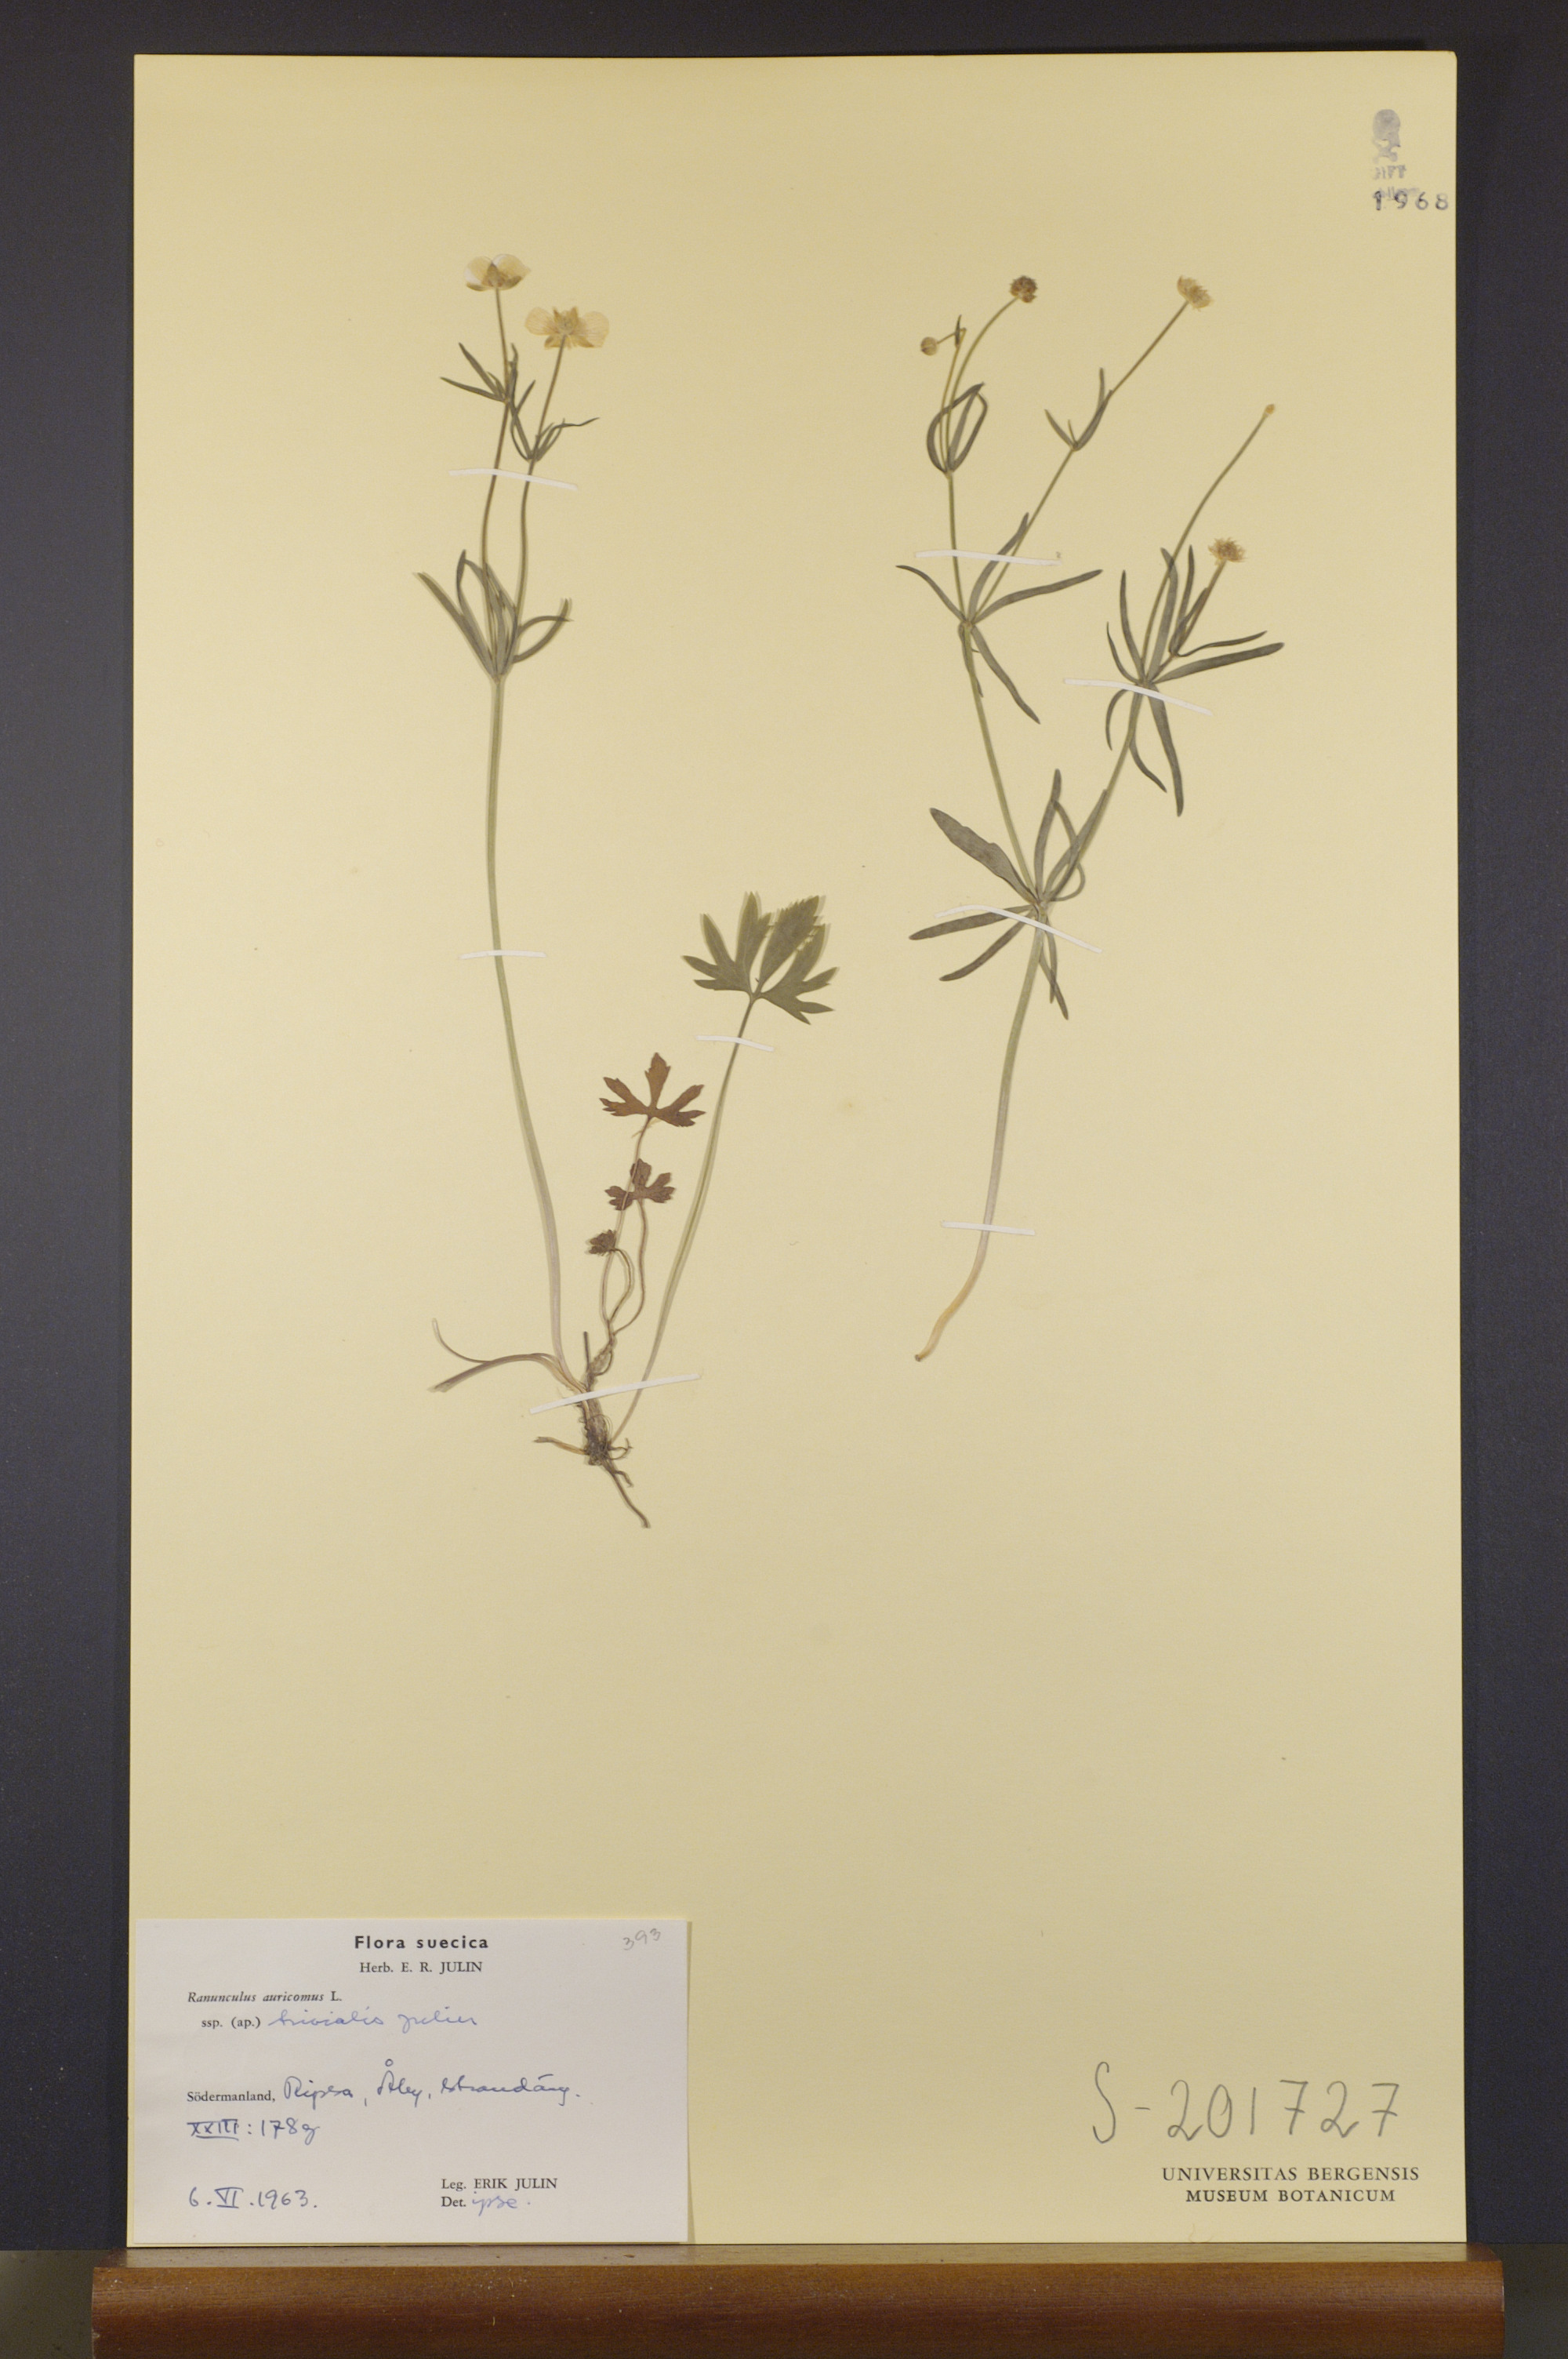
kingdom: Plantae
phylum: Tracheophyta
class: Magnoliopsida
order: Ranunculales
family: Ranunculaceae
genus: Ranunculus
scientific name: Ranunculus trivialis
